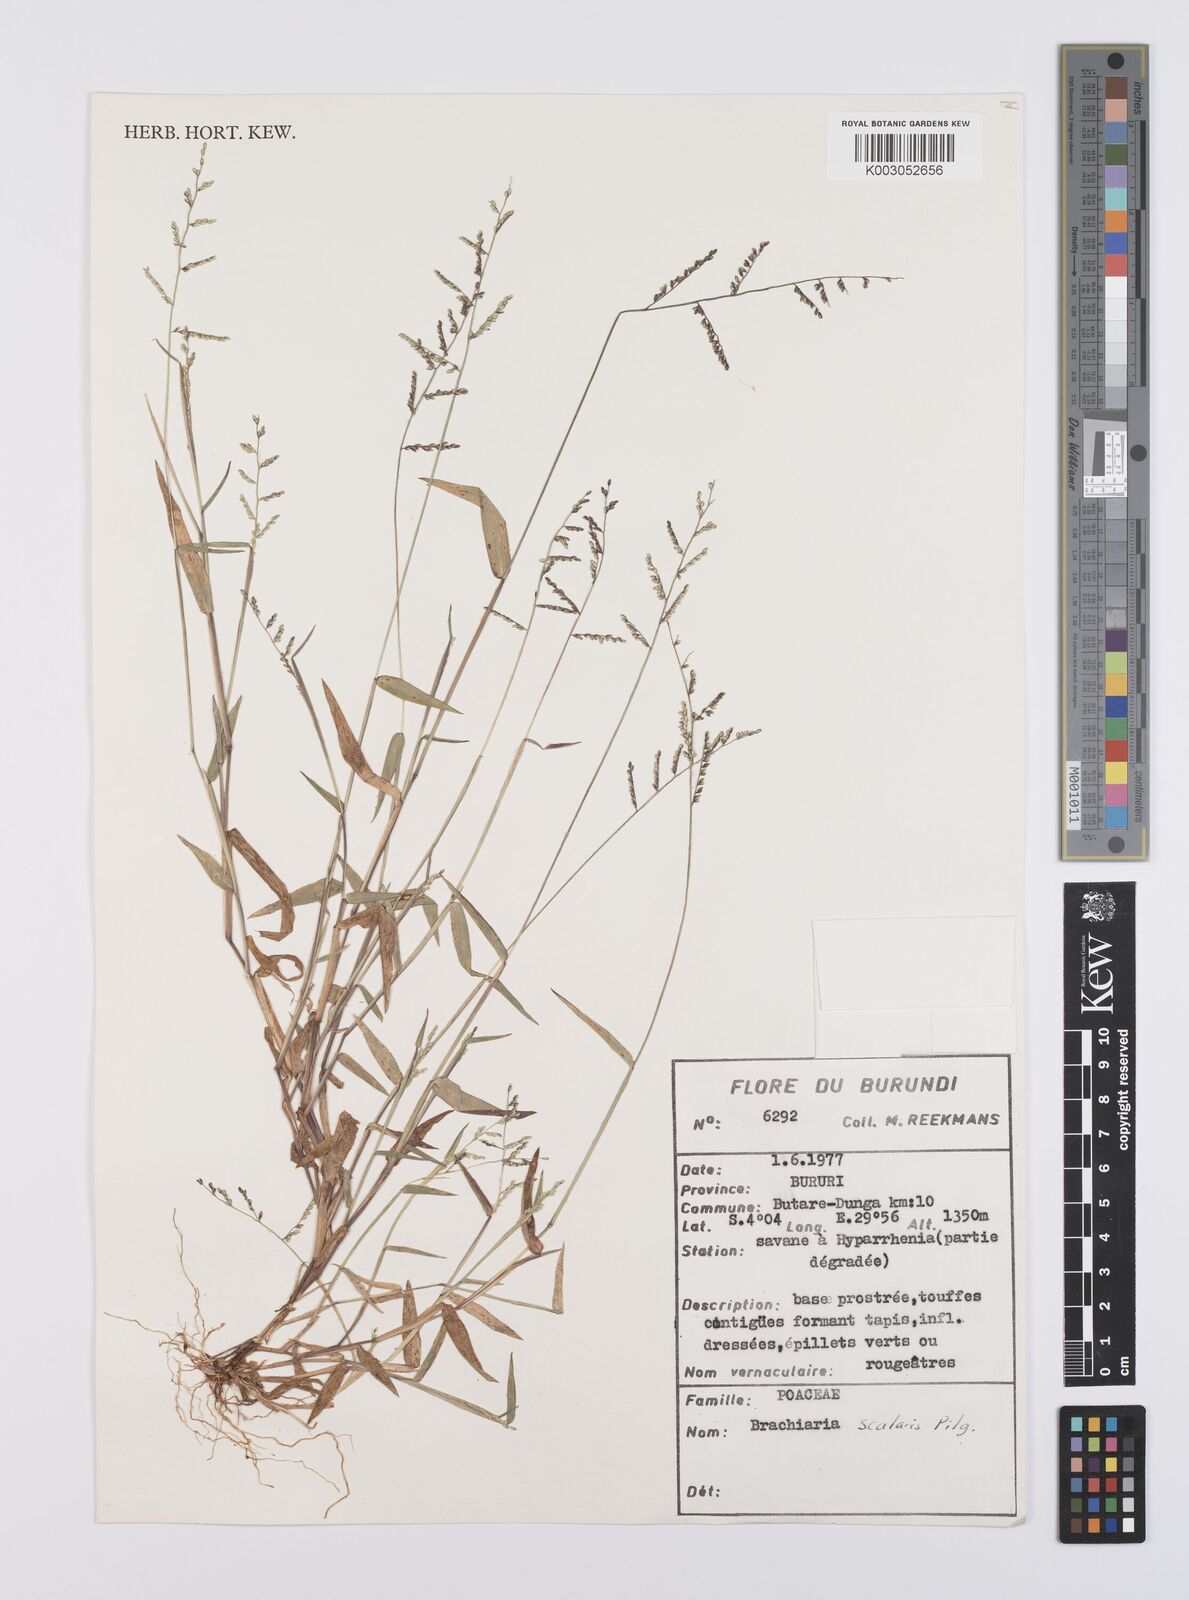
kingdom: Plantae
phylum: Tracheophyta
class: Liliopsida
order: Poales
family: Poaceae
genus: Urochloa
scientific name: Urochloa comata
